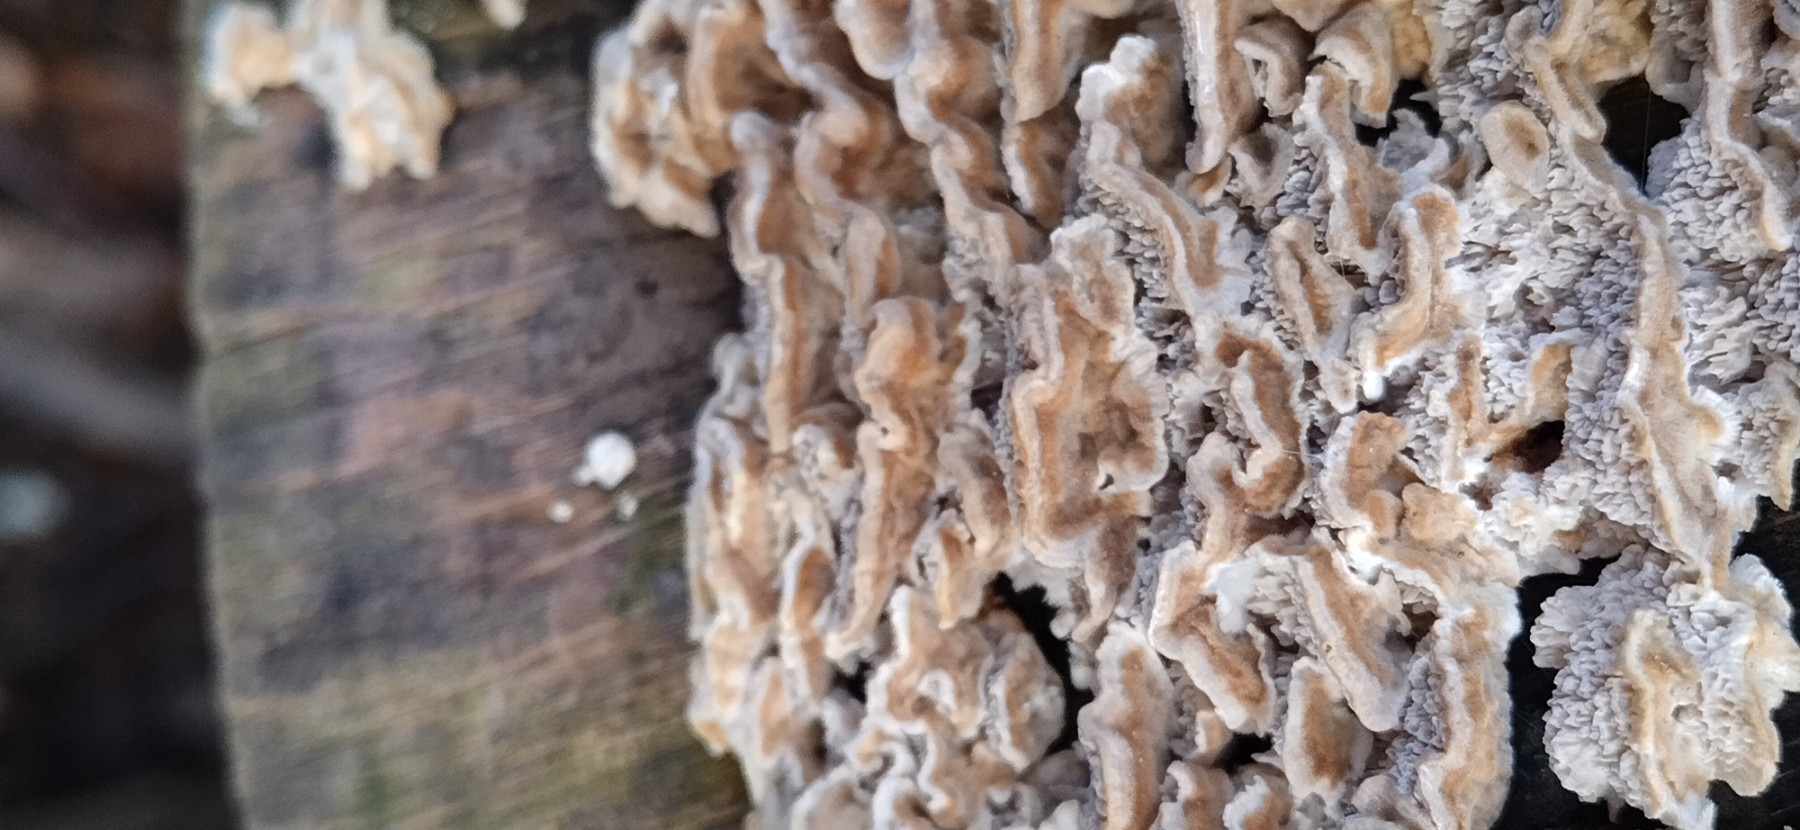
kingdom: Fungi
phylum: Basidiomycota
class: Agaricomycetes
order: Polyporales
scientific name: Polyporales
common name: poresvampordenen
